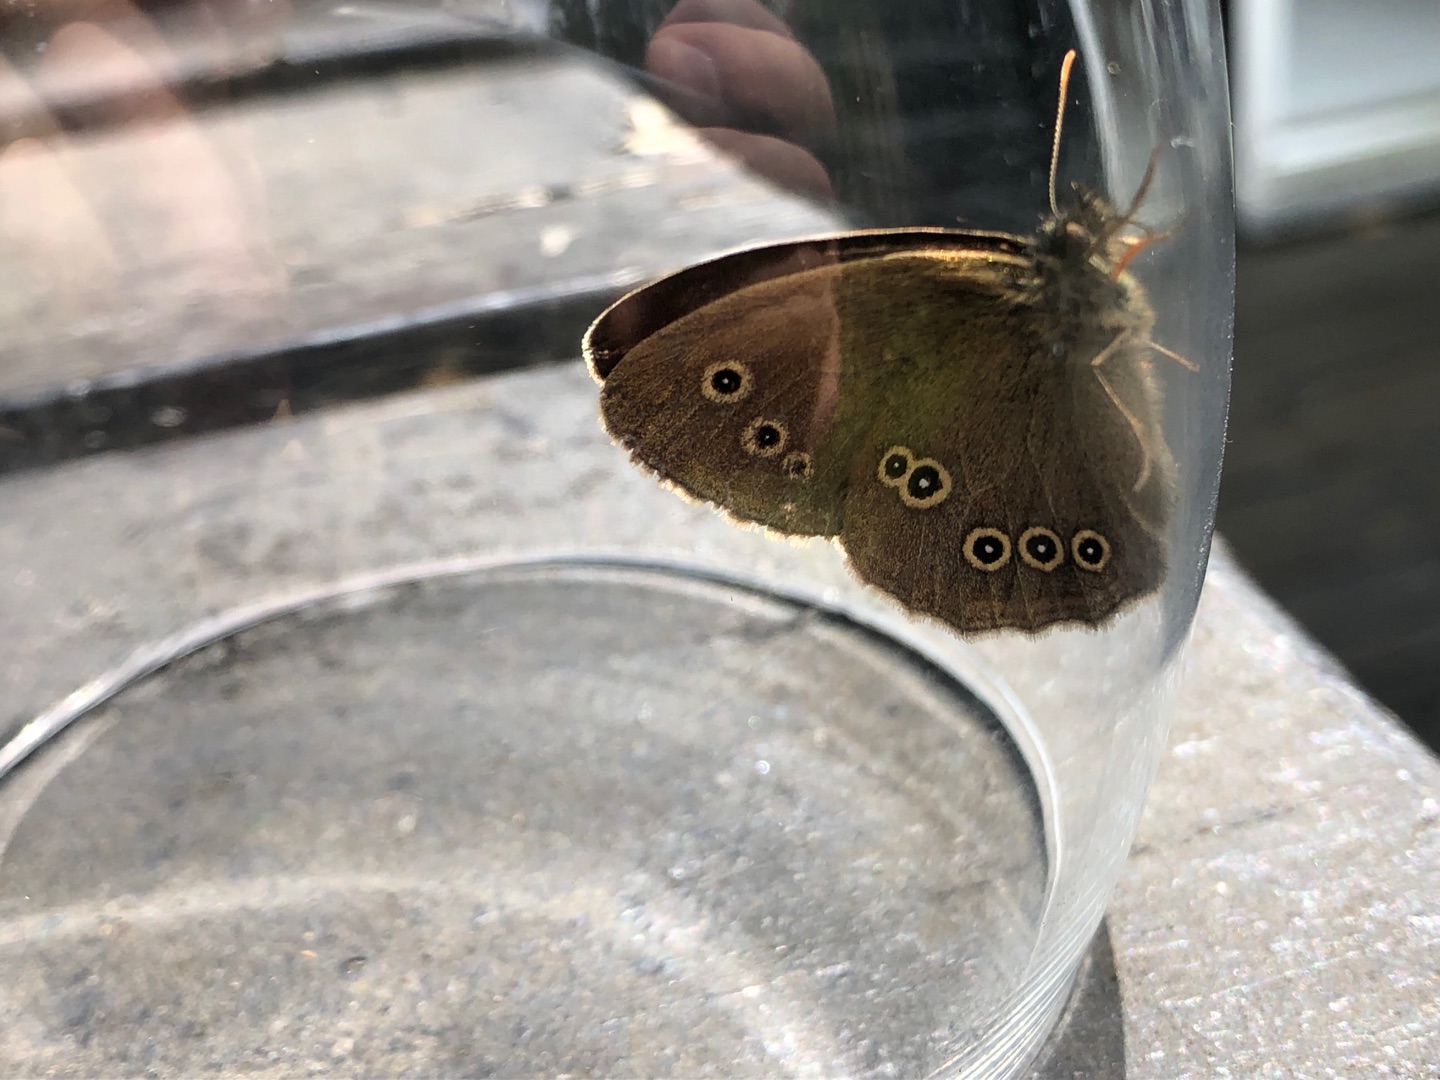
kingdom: Animalia
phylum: Arthropoda
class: Insecta
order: Lepidoptera
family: Nymphalidae
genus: Aphantopus
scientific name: Aphantopus hyperantus
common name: Engrandøje
